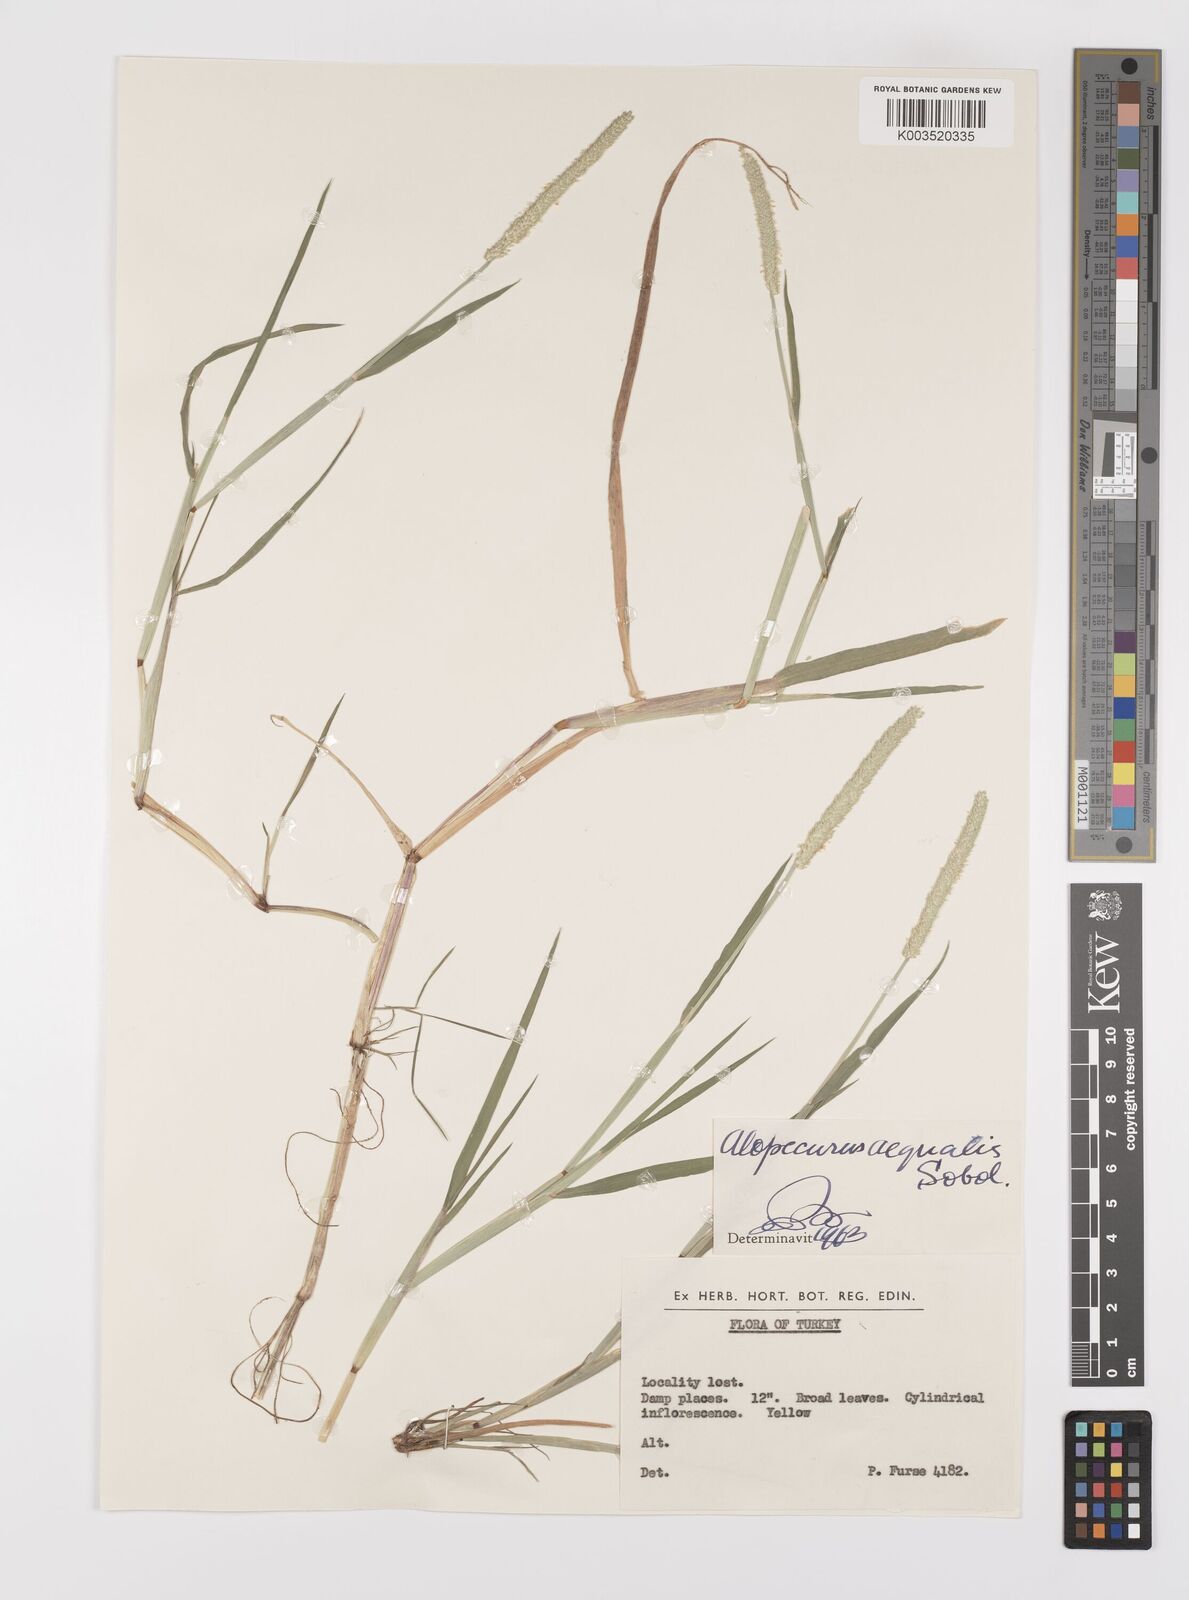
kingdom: Plantae
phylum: Tracheophyta
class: Liliopsida
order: Poales
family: Poaceae
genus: Alopecurus
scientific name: Alopecurus aequalis
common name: Orange foxtail
